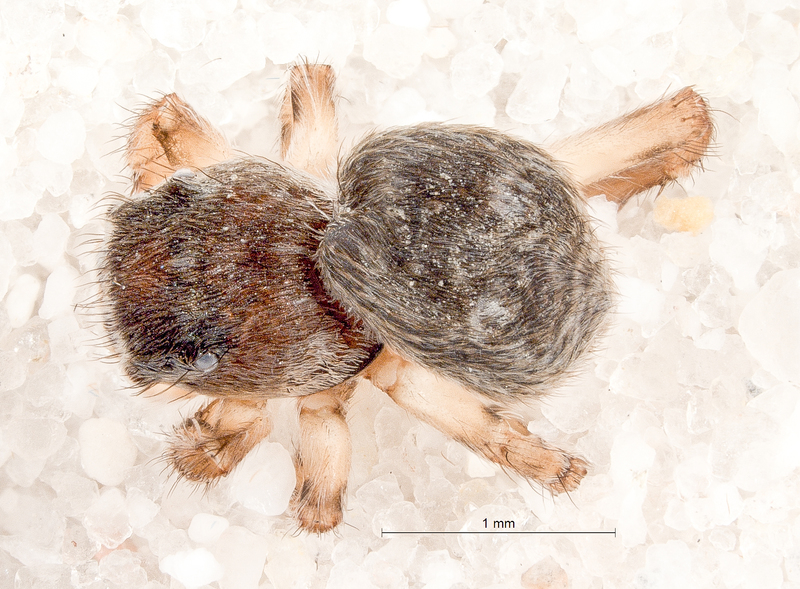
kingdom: Animalia
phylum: Arthropoda
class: Arachnida
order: Araneae
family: Salticidae
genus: Attulus
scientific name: Attulus saltator
